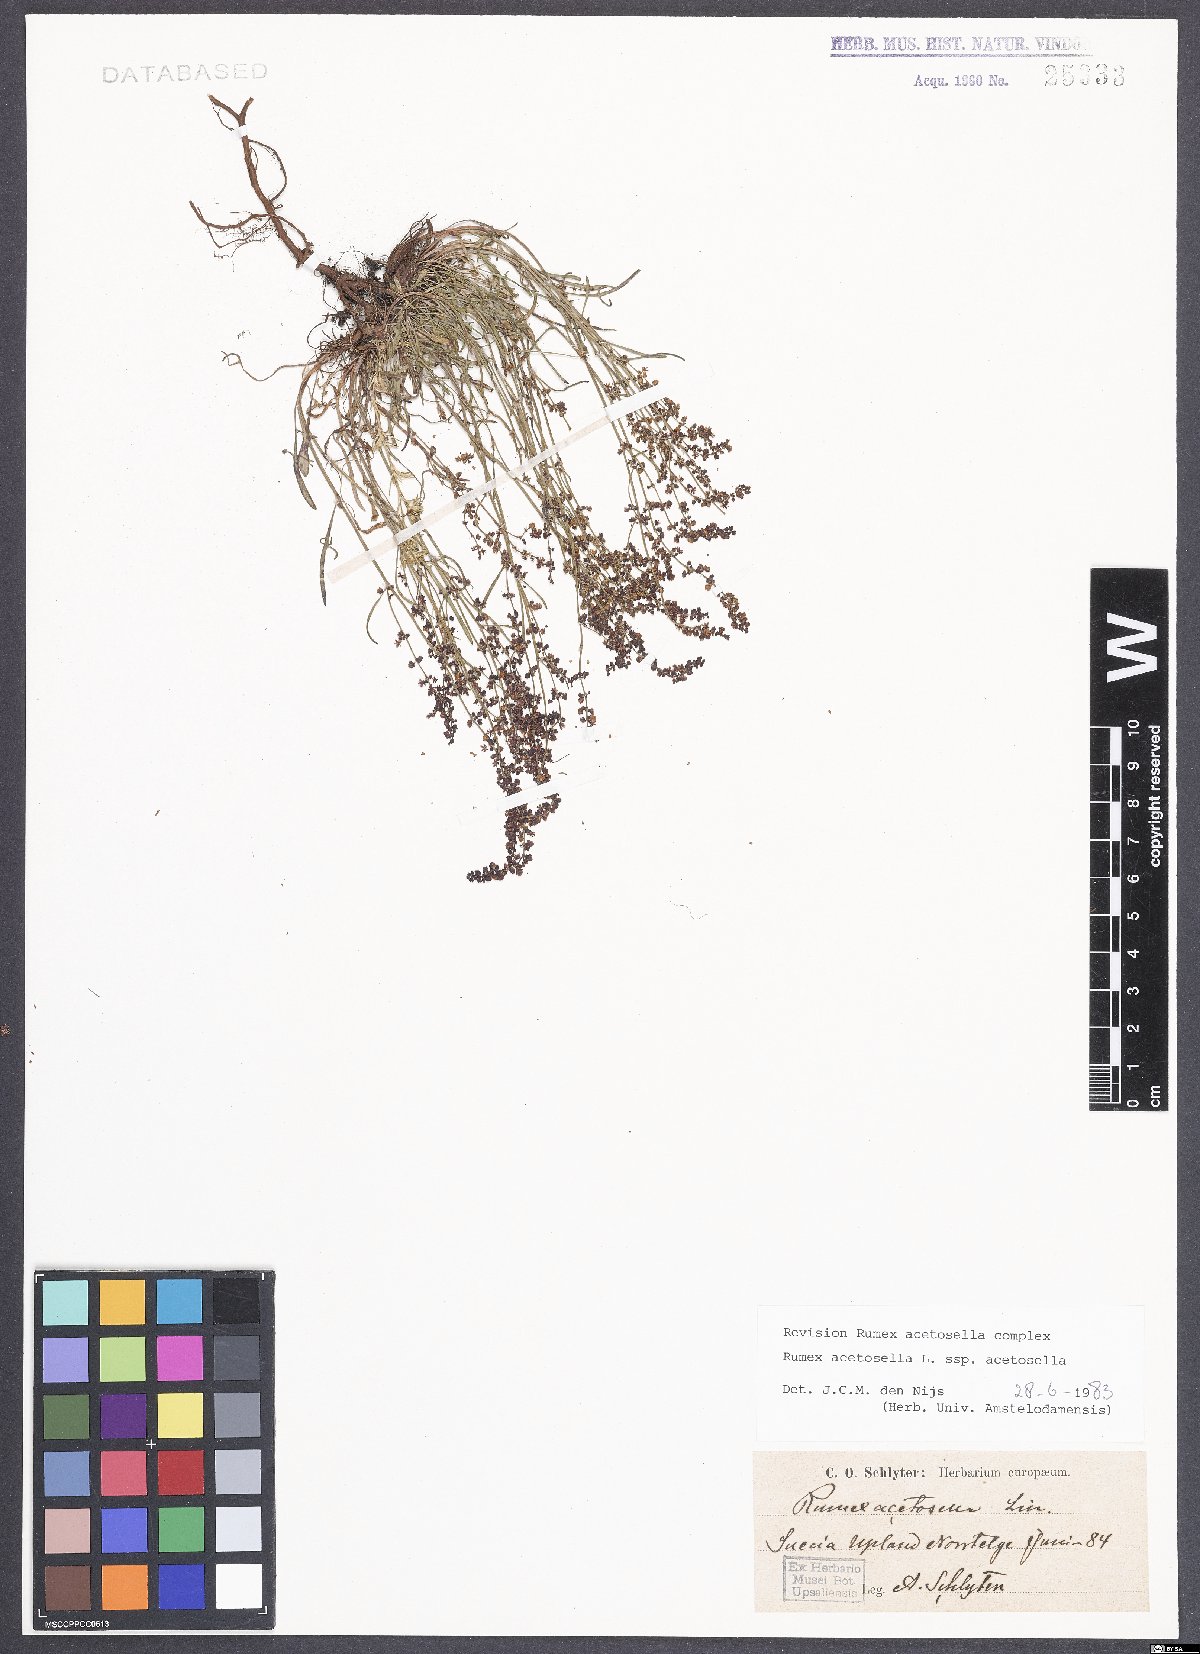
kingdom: Plantae
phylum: Tracheophyta
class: Magnoliopsida
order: Caryophyllales
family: Polygonaceae
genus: Rumex
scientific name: Rumex acetosella
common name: Common sheep sorrel
